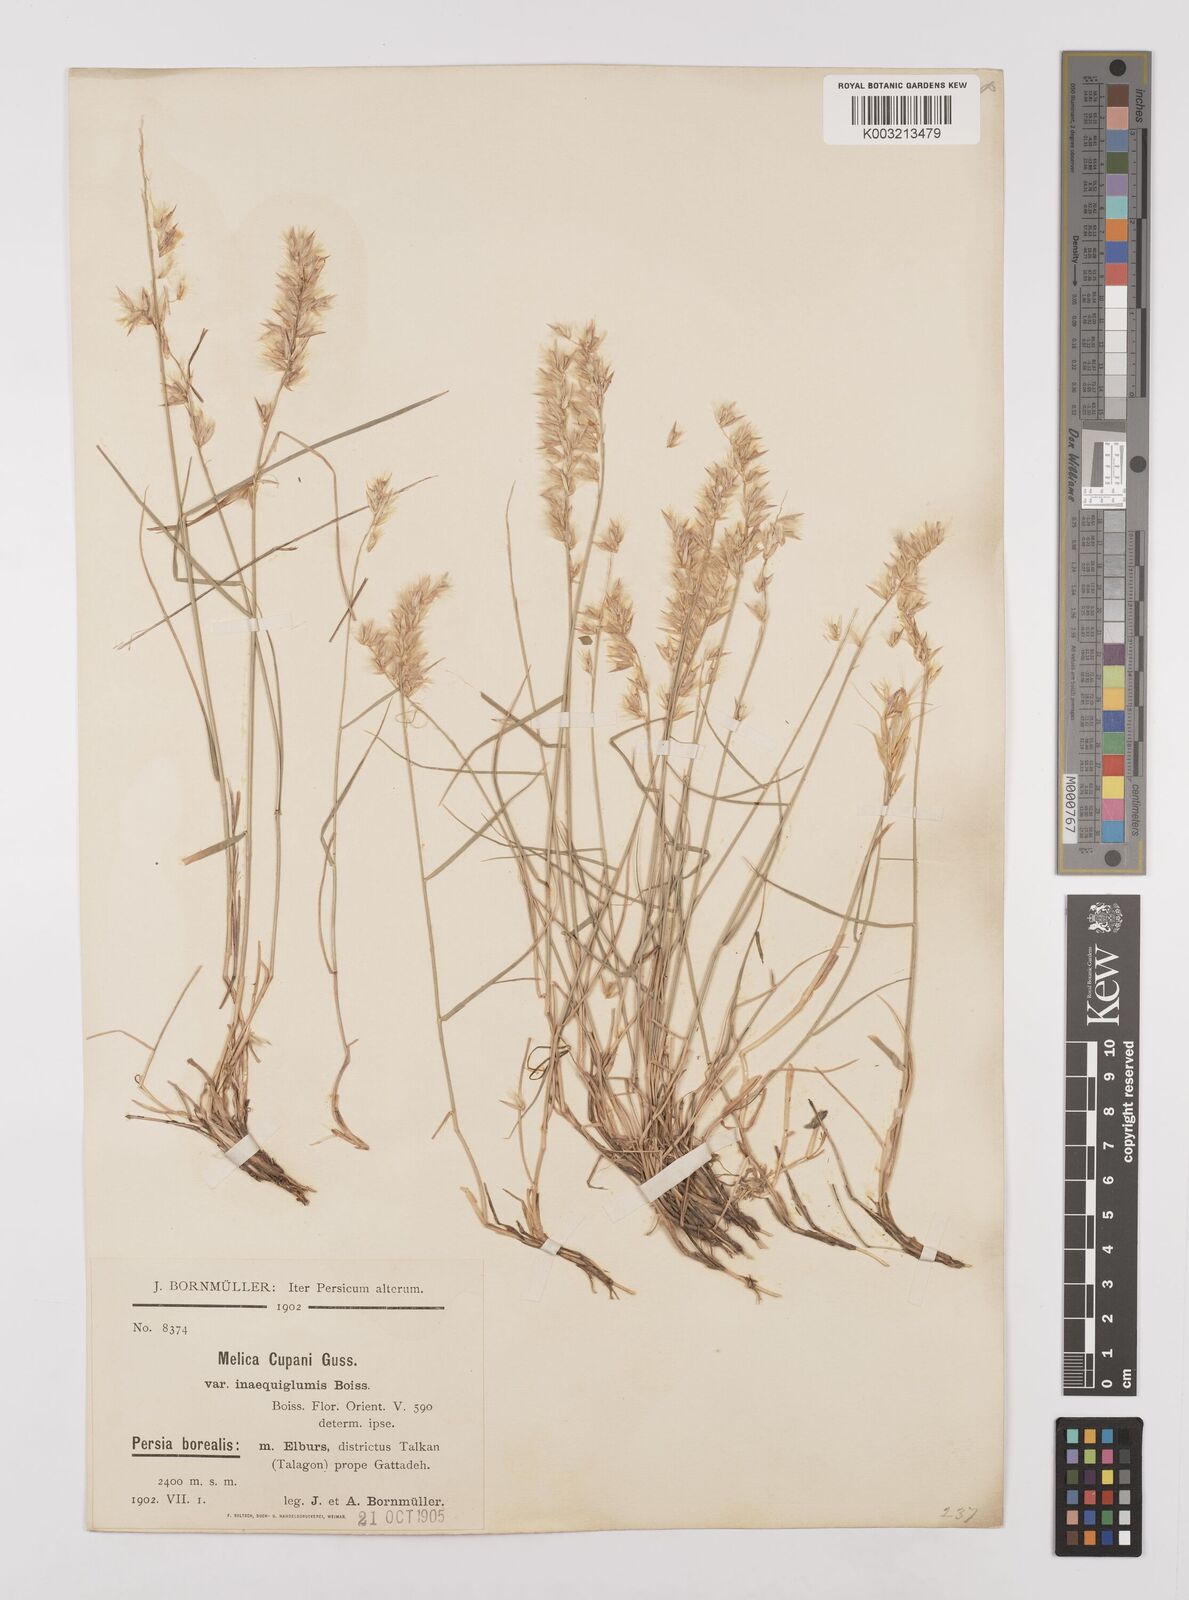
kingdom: Plantae
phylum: Tracheophyta
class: Liliopsida
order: Poales
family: Poaceae
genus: Melica
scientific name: Melica persica
